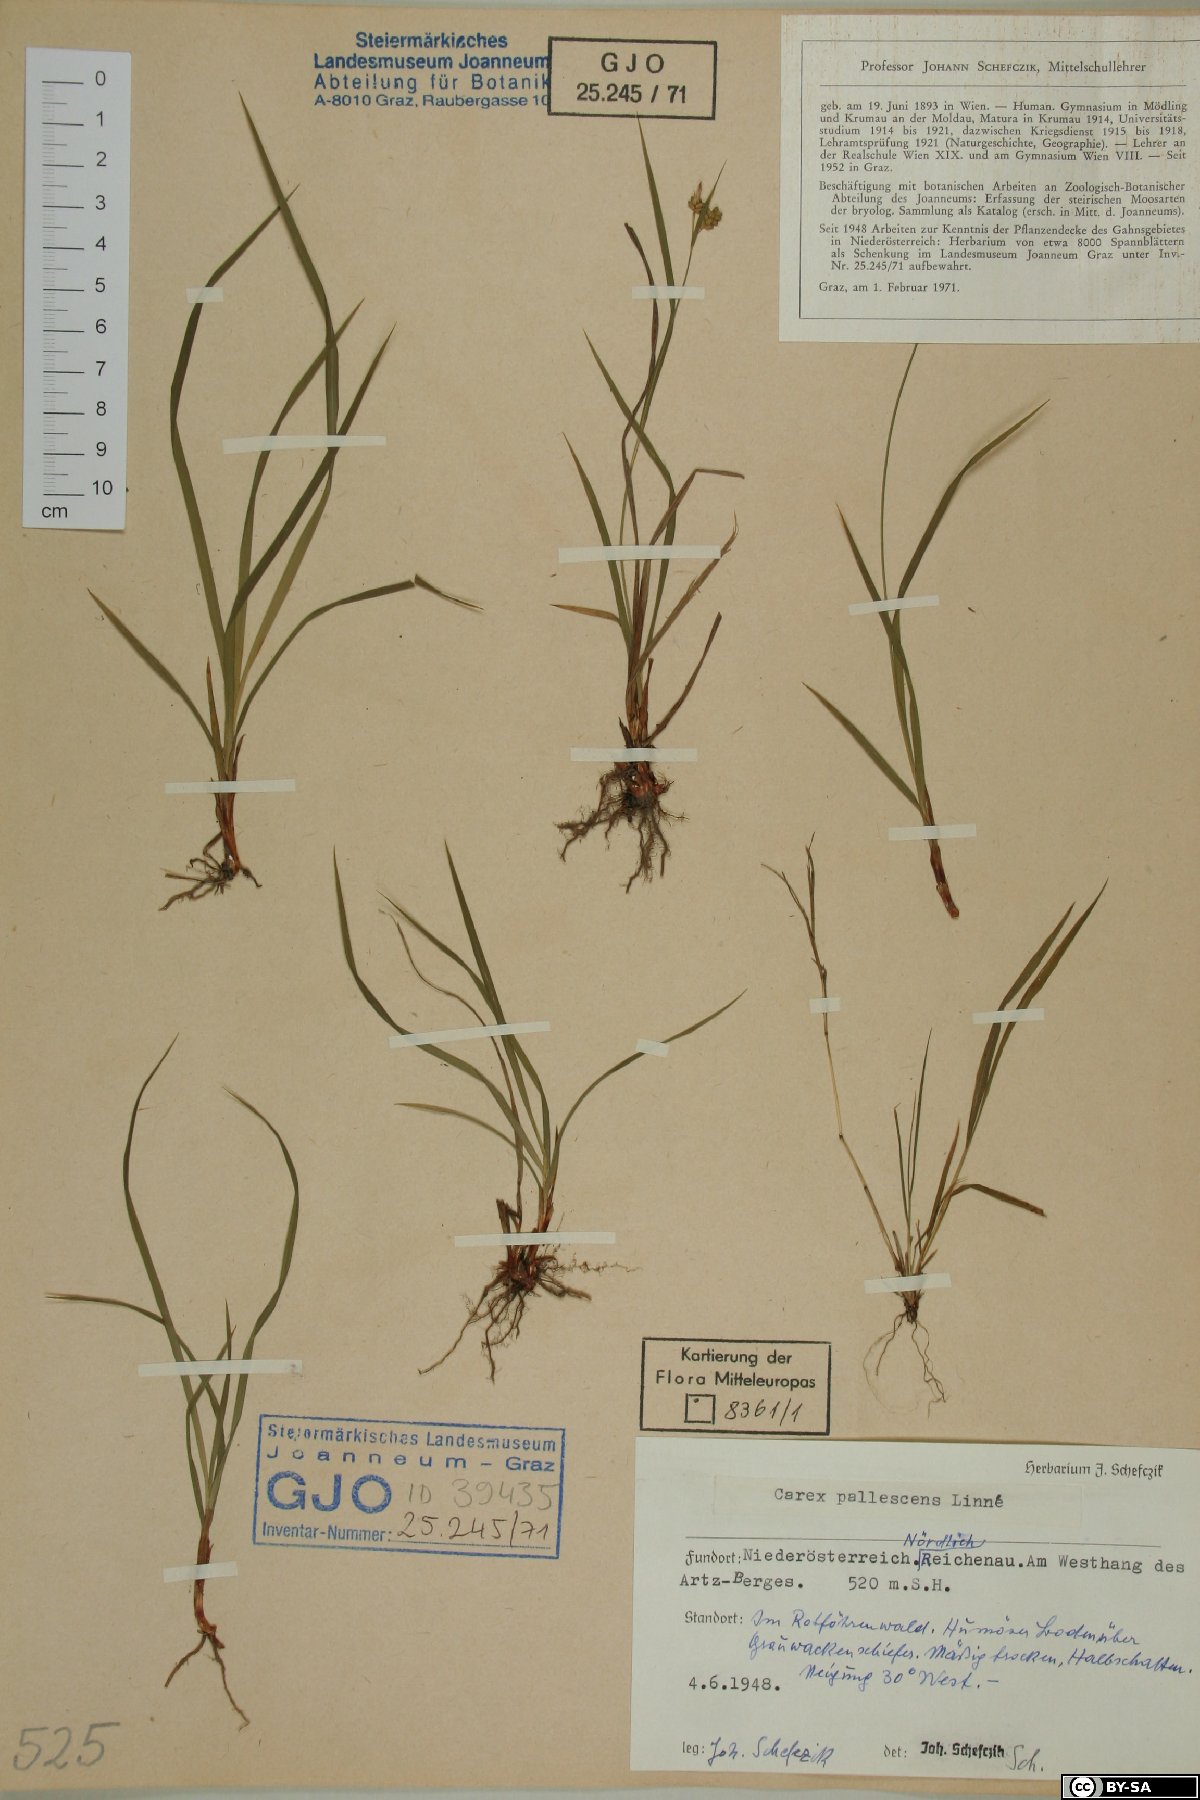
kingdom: Plantae
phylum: Tracheophyta
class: Liliopsida
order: Poales
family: Cyperaceae
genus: Carex
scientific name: Carex pallescens
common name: Pale sedge
